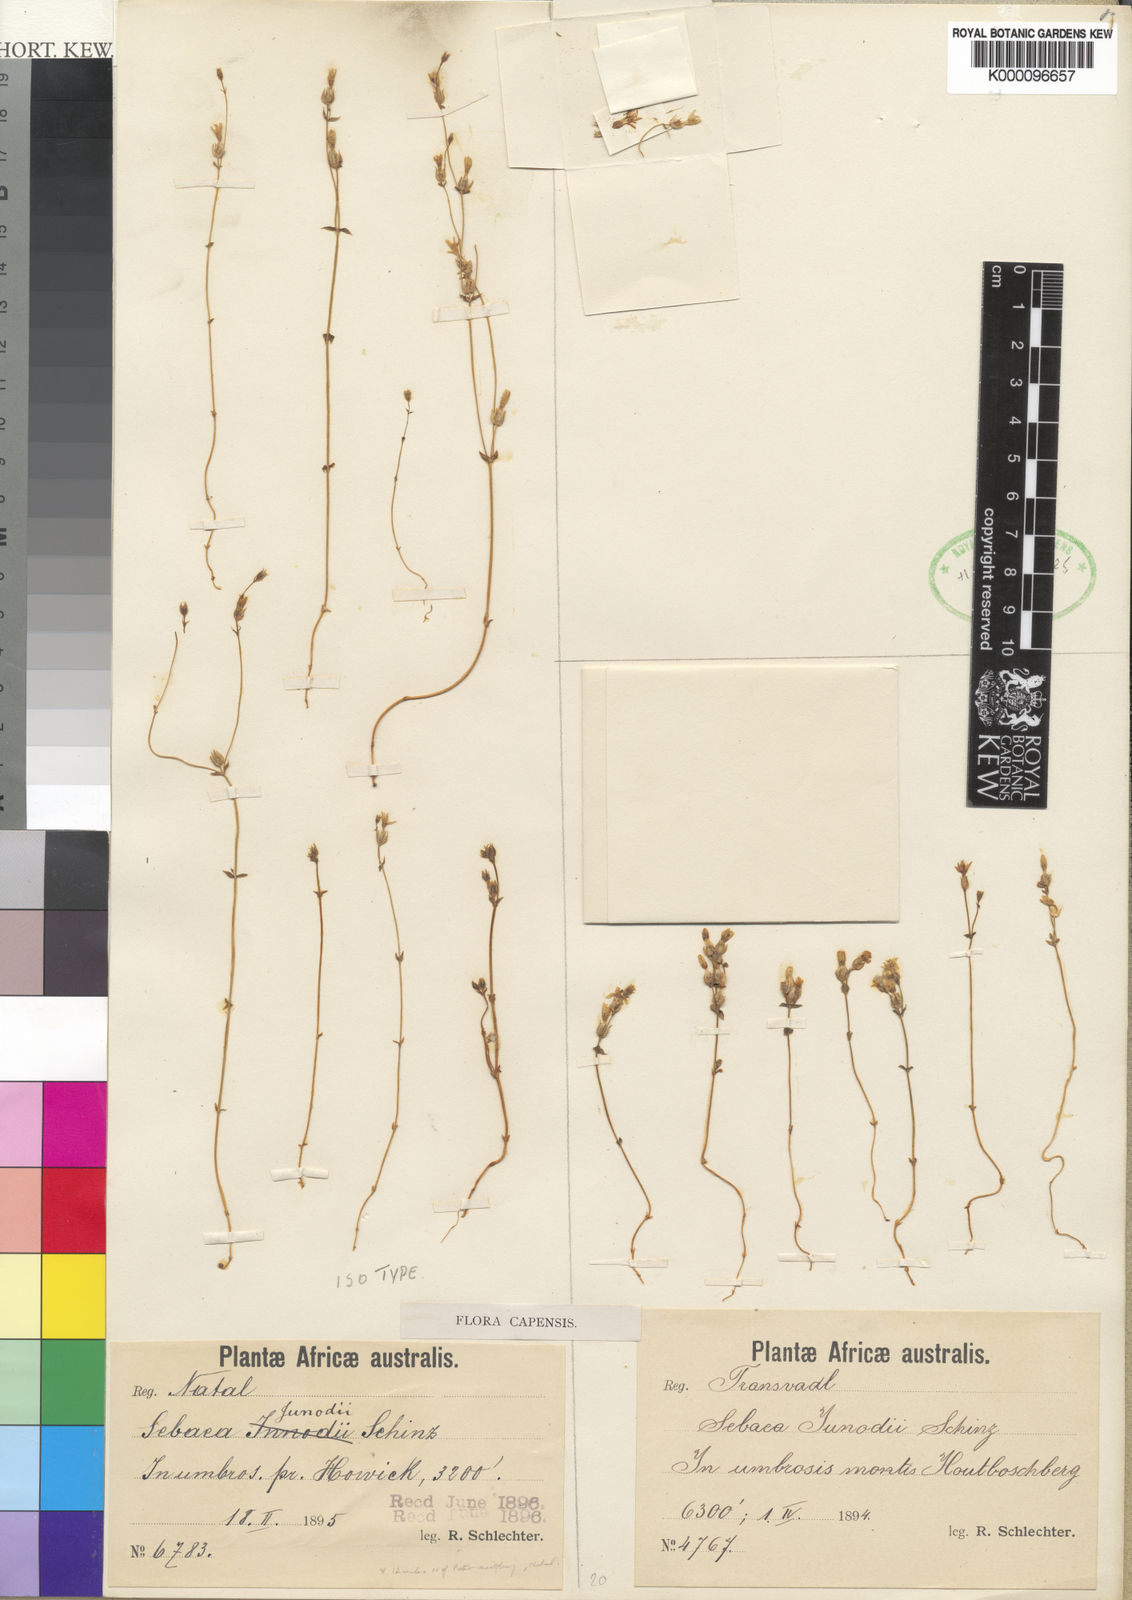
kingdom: Plantae
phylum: Tracheophyta
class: Magnoliopsida
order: Gentianales
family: Gentianaceae
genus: Sebaea
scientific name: Sebaea junodii
